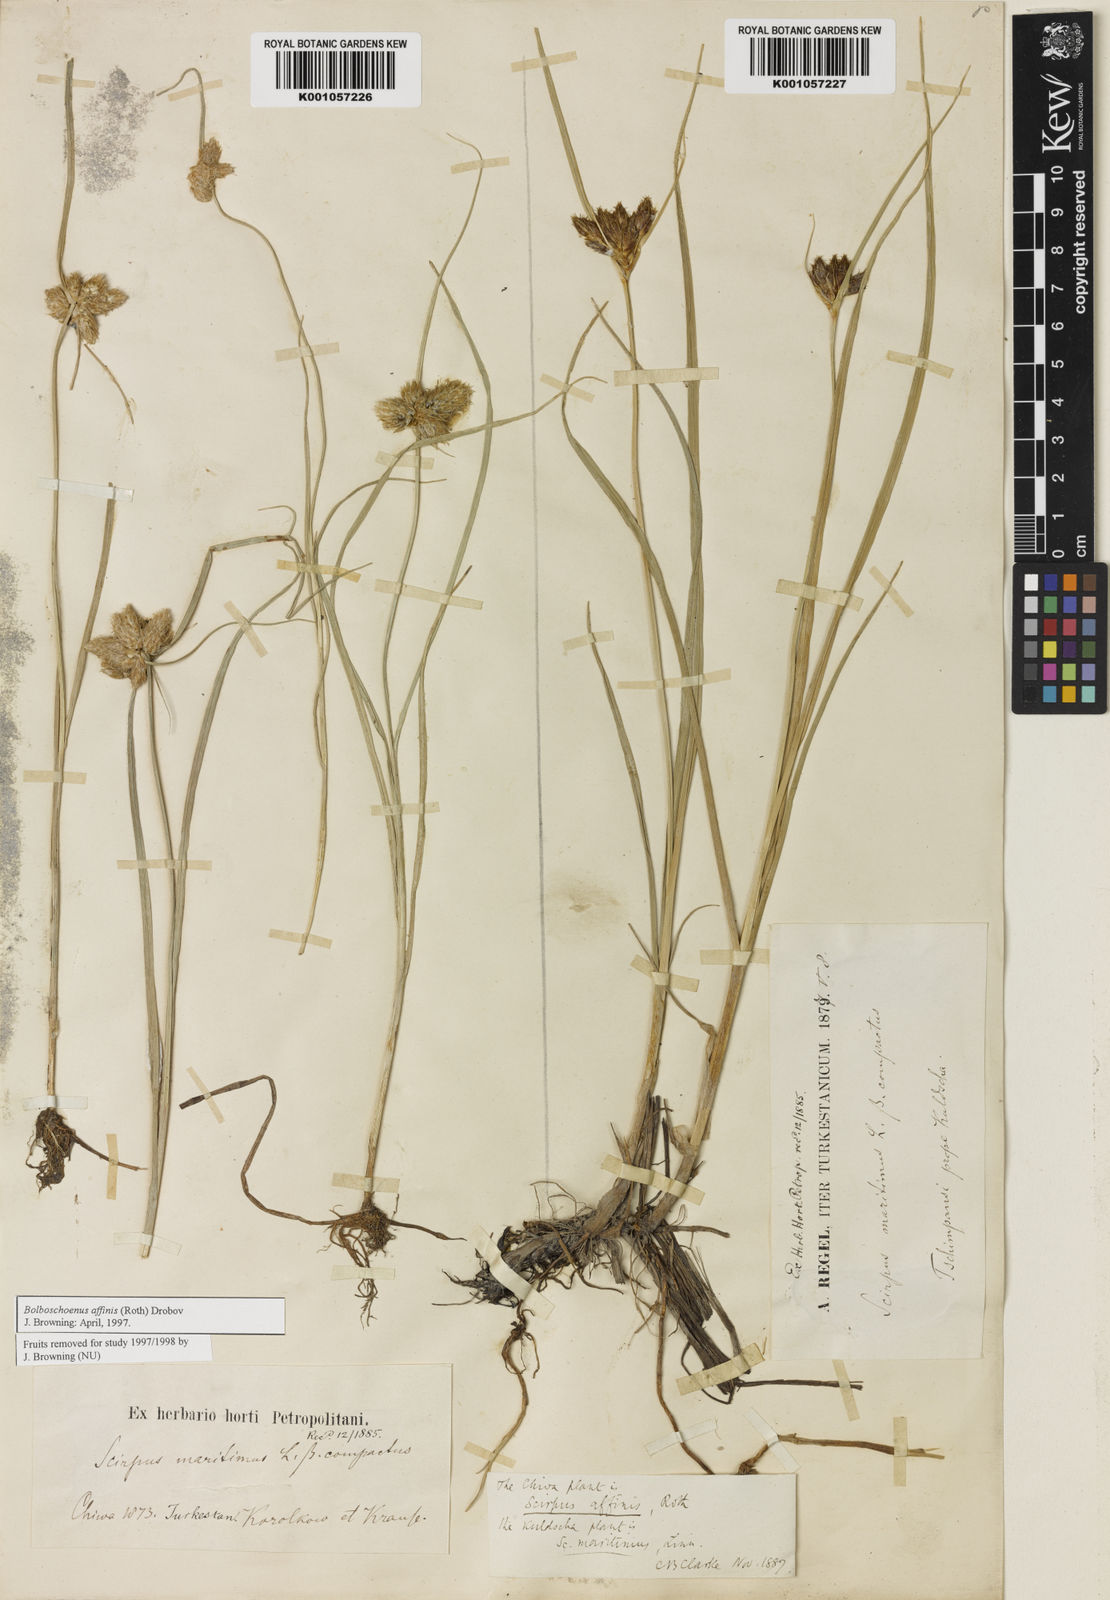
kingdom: Plantae
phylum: Tracheophyta
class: Liliopsida
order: Poales
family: Cyperaceae
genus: Bolboschoenus
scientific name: Bolboschoenus maritimus
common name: Sea club-rush
